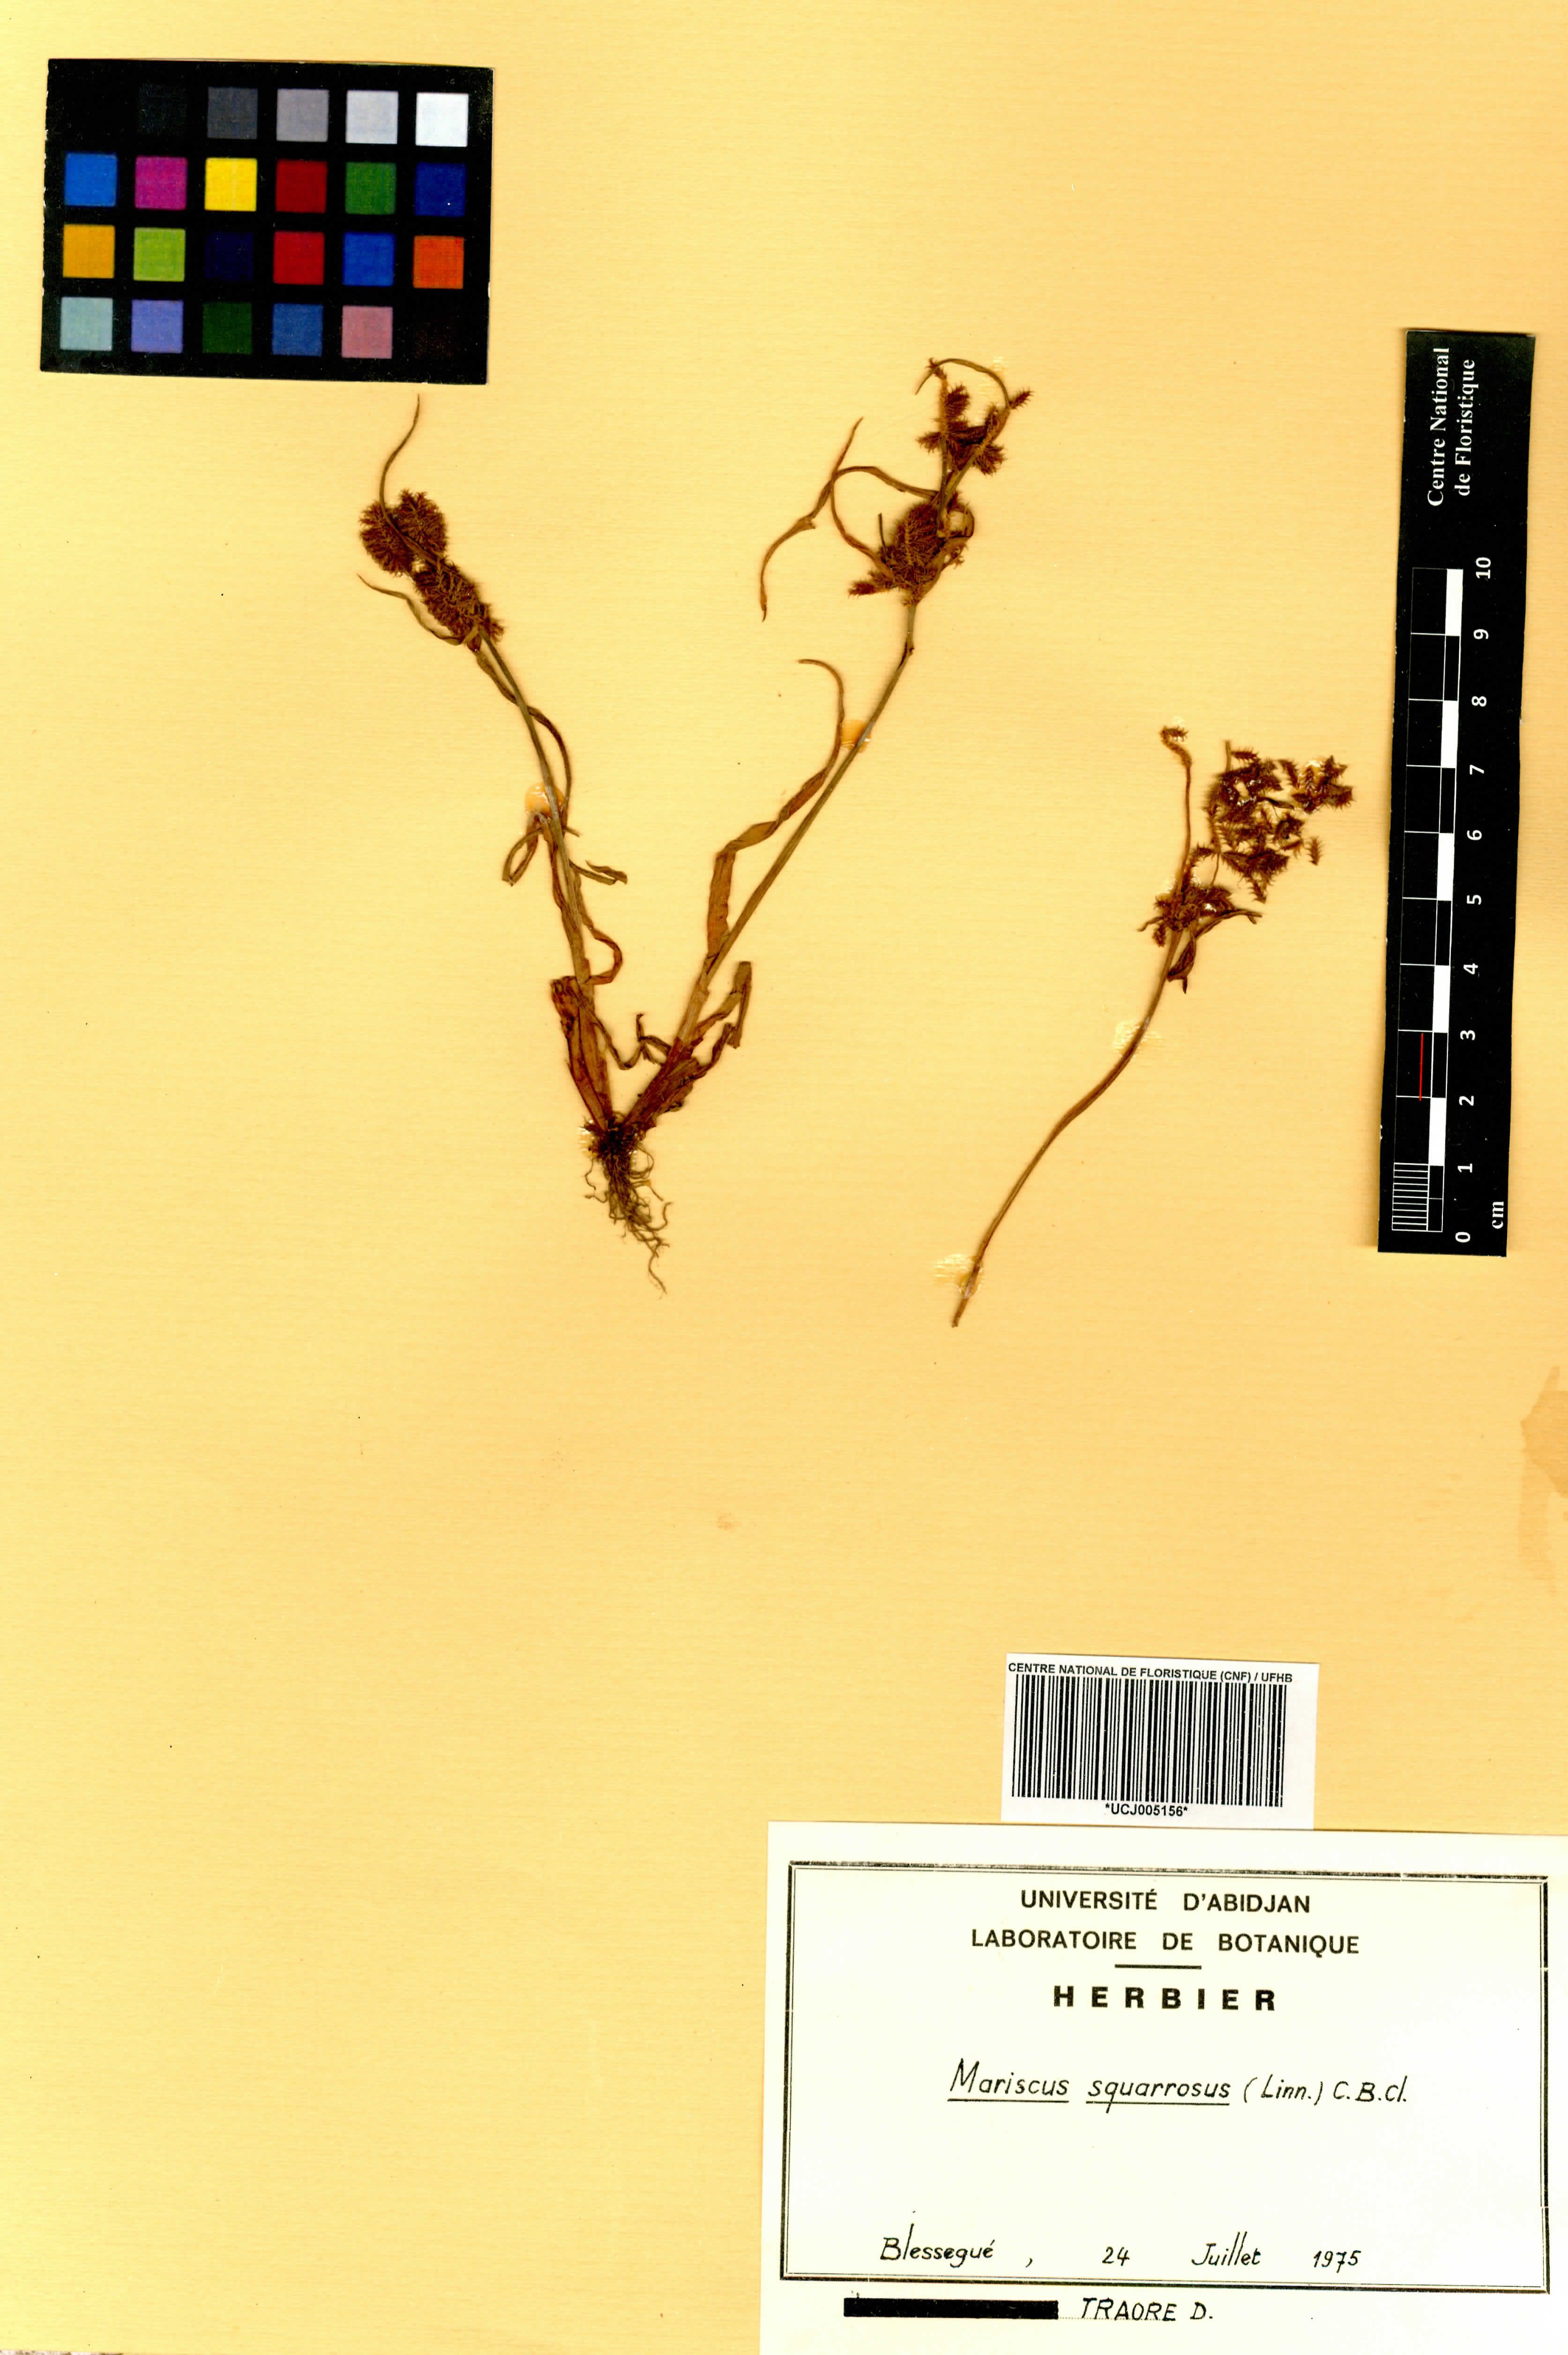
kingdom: Plantae
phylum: Tracheophyta
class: Liliopsida
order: Poales
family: Cyperaceae
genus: Cyperus
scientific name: Cyperus squarrosus
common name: Awned cyperus
